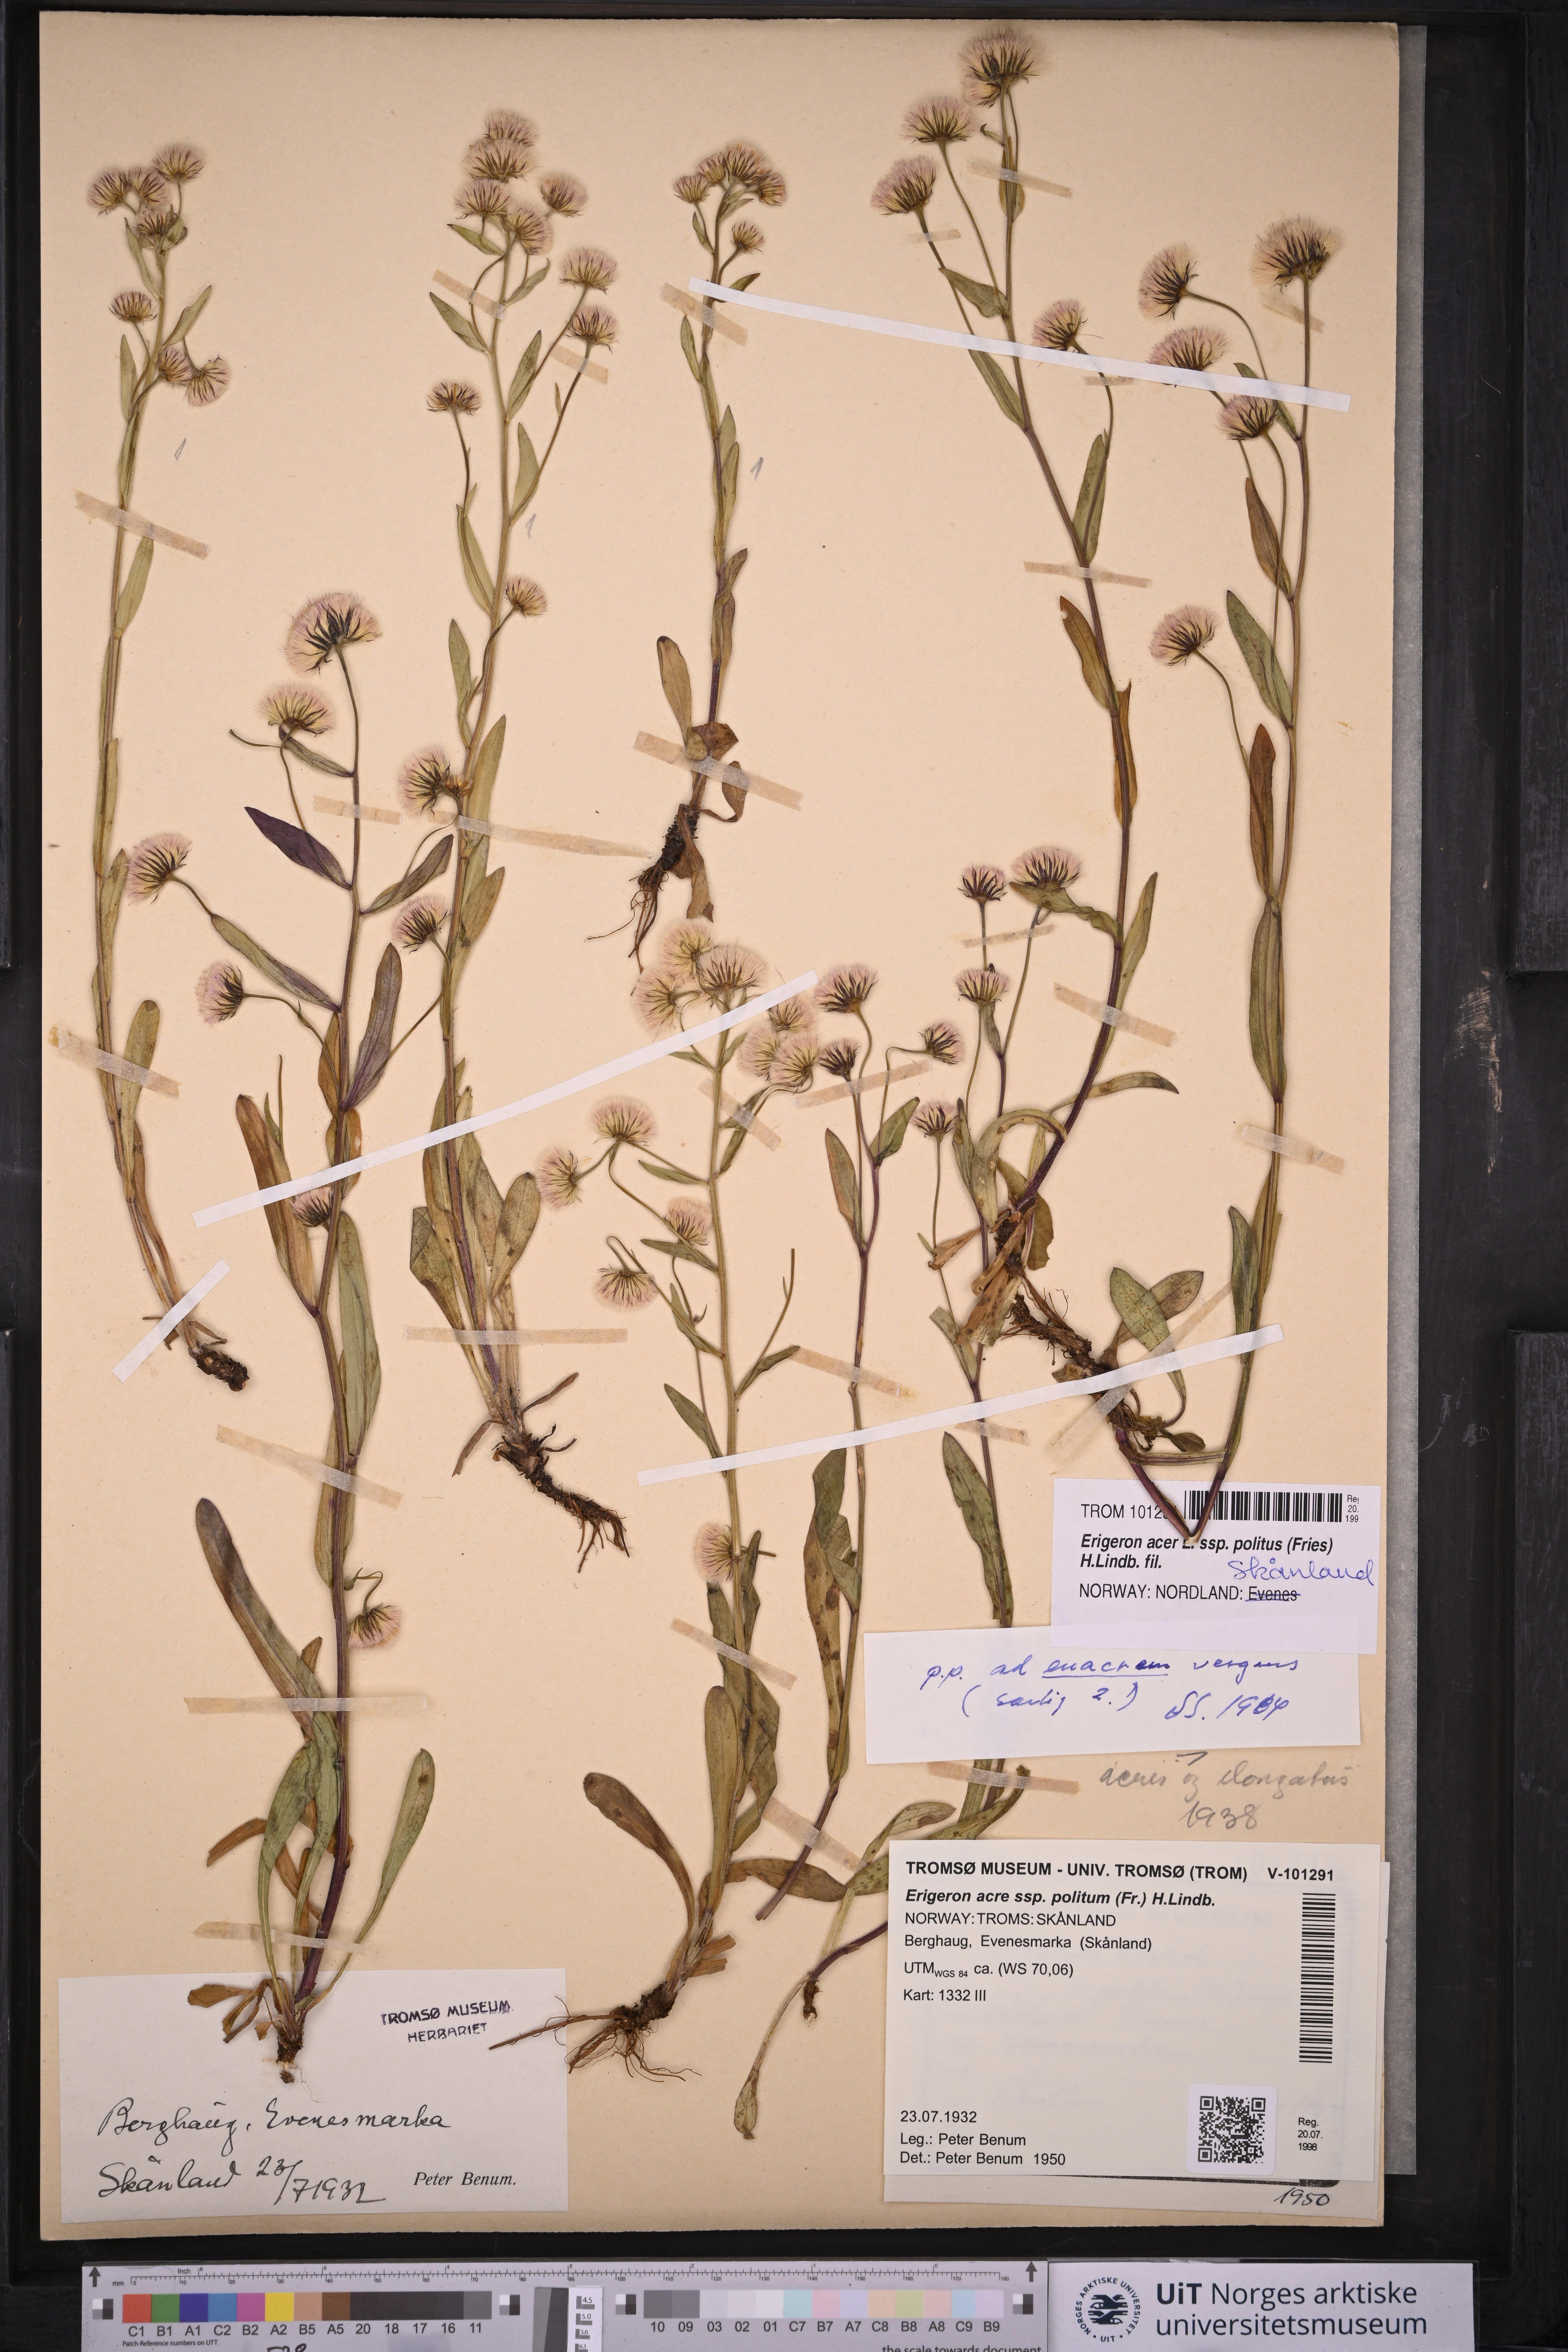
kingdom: Plantae
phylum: Tracheophyta
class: Magnoliopsida
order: Asterales
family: Asteraceae
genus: Erigeron
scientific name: Erigeron politus
